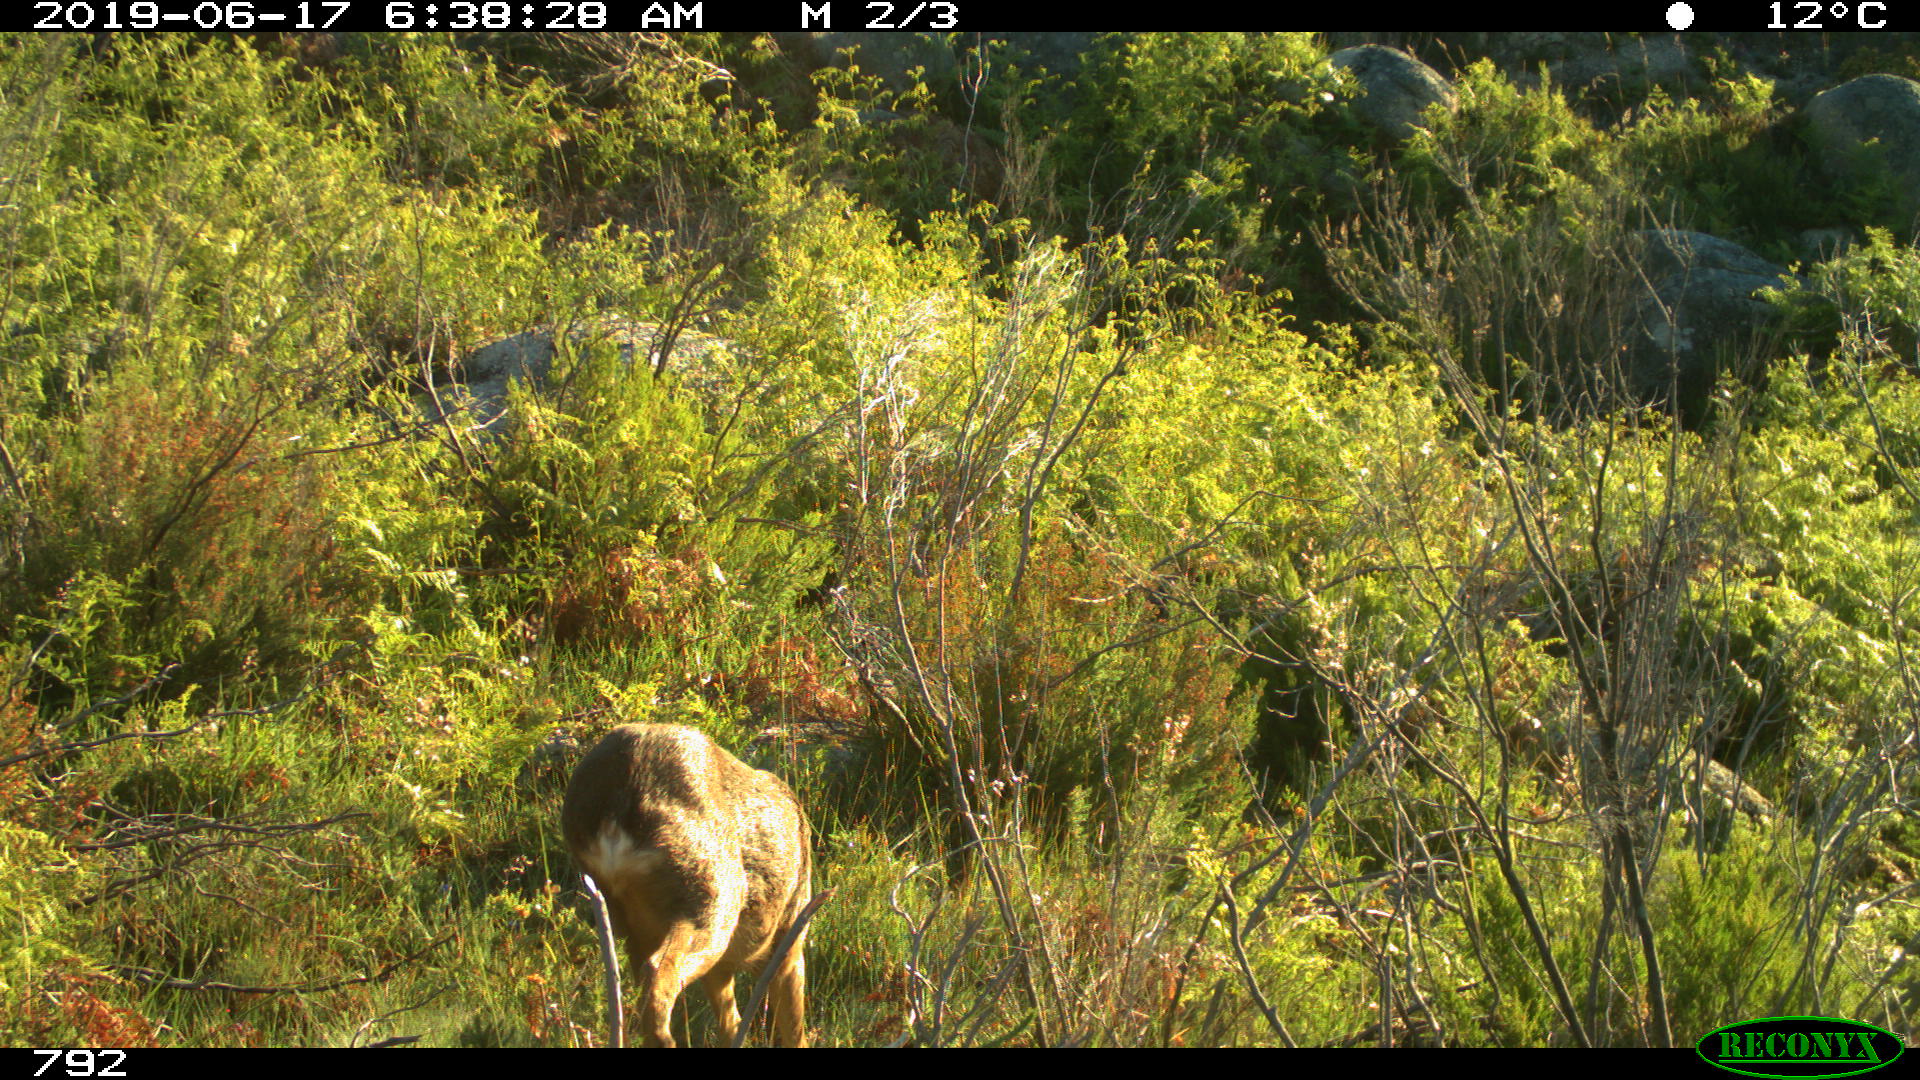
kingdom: Animalia
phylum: Chordata
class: Mammalia
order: Artiodactyla
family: Cervidae
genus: Capreolus
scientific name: Capreolus capreolus
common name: Western roe deer
